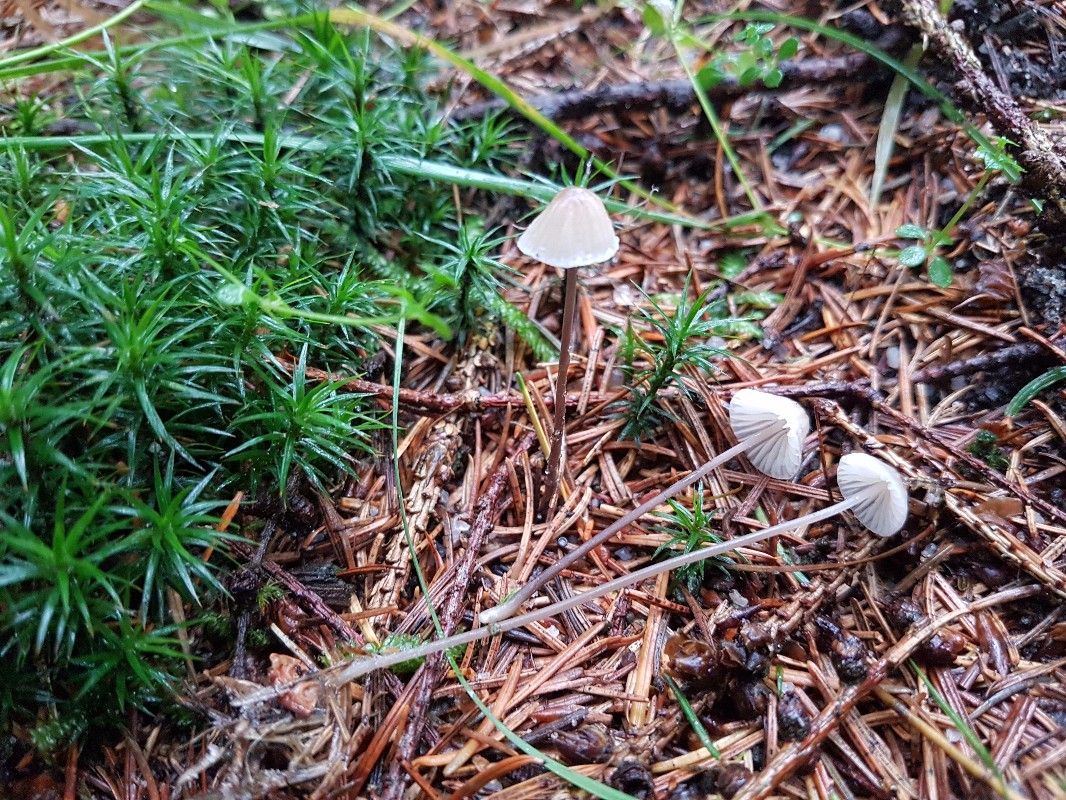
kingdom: Fungi
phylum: Basidiomycota
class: Agaricomycetes
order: Agaricales
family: Mycenaceae
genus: Mycena
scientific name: Mycena galopus
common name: hvidmælket huesvamp
